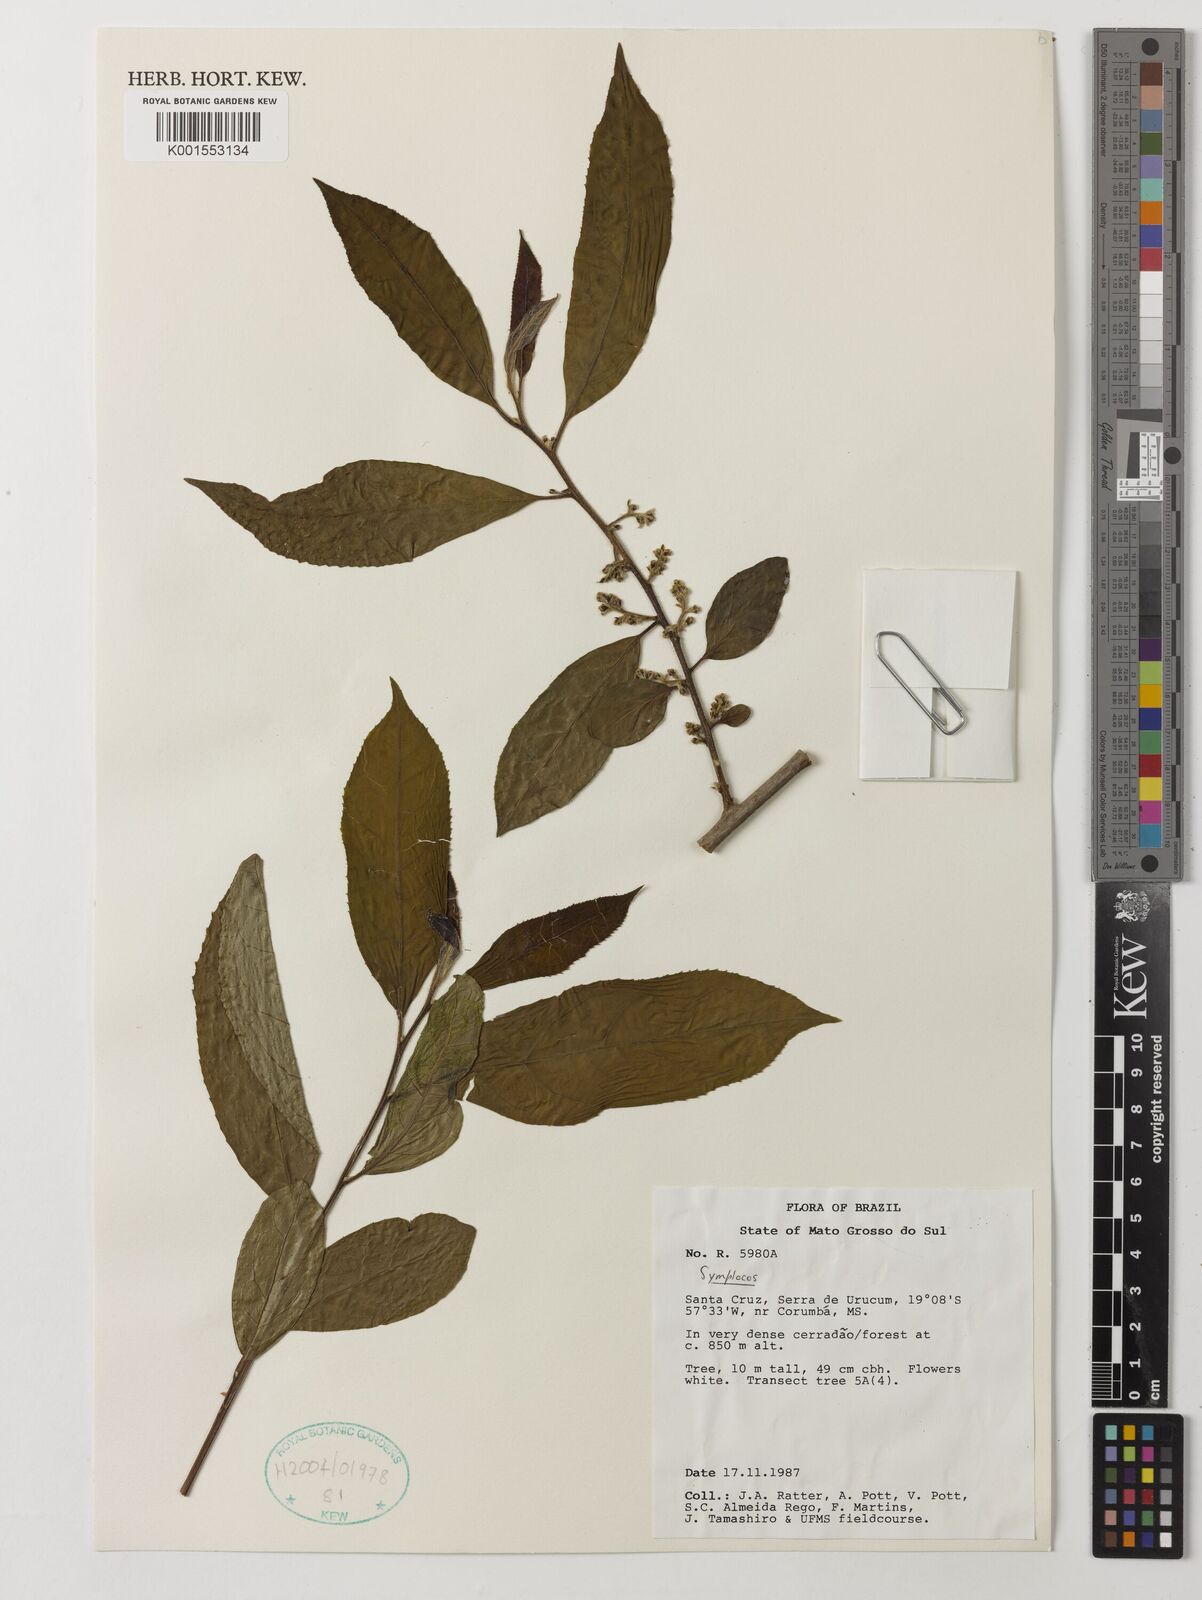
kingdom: Plantae
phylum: Tracheophyta
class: Magnoliopsida
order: Ericales
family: Symplocaceae
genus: Symplocos
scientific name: Symplocos
